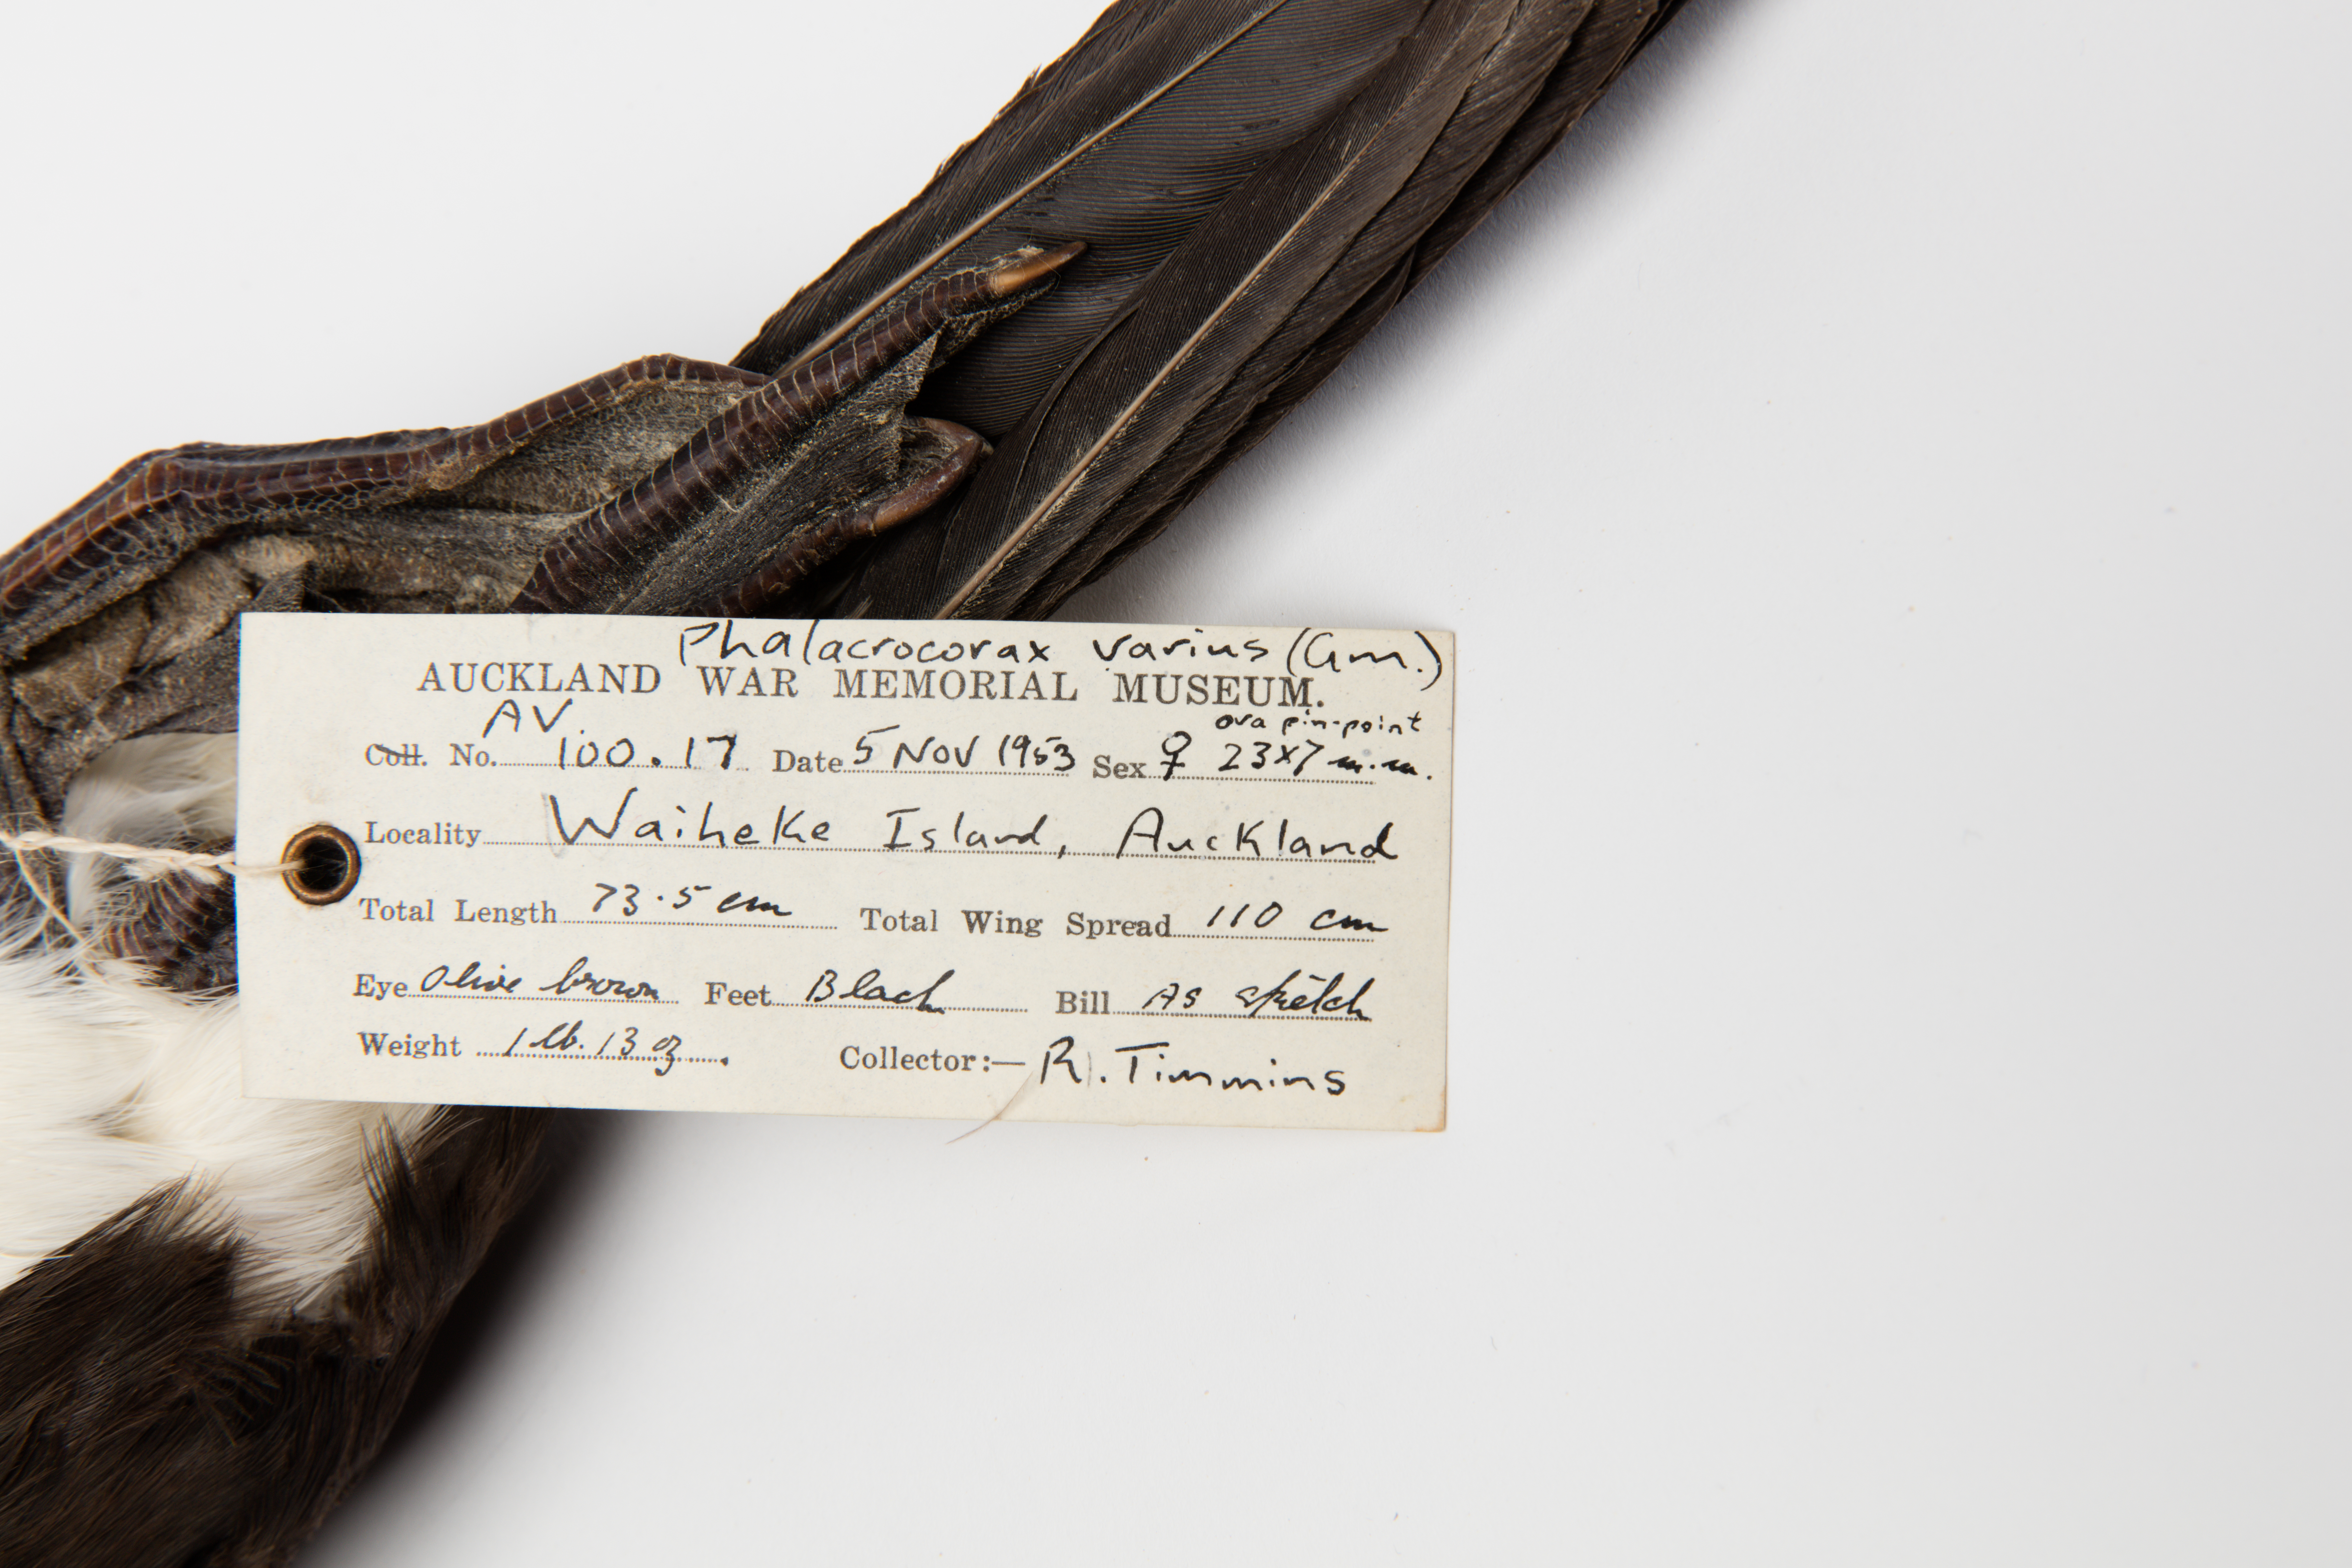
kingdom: Animalia
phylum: Chordata
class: Aves
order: Suliformes
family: Phalacrocoracidae
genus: Phalacrocorax
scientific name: Phalacrocorax varius
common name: Pied cormorant
